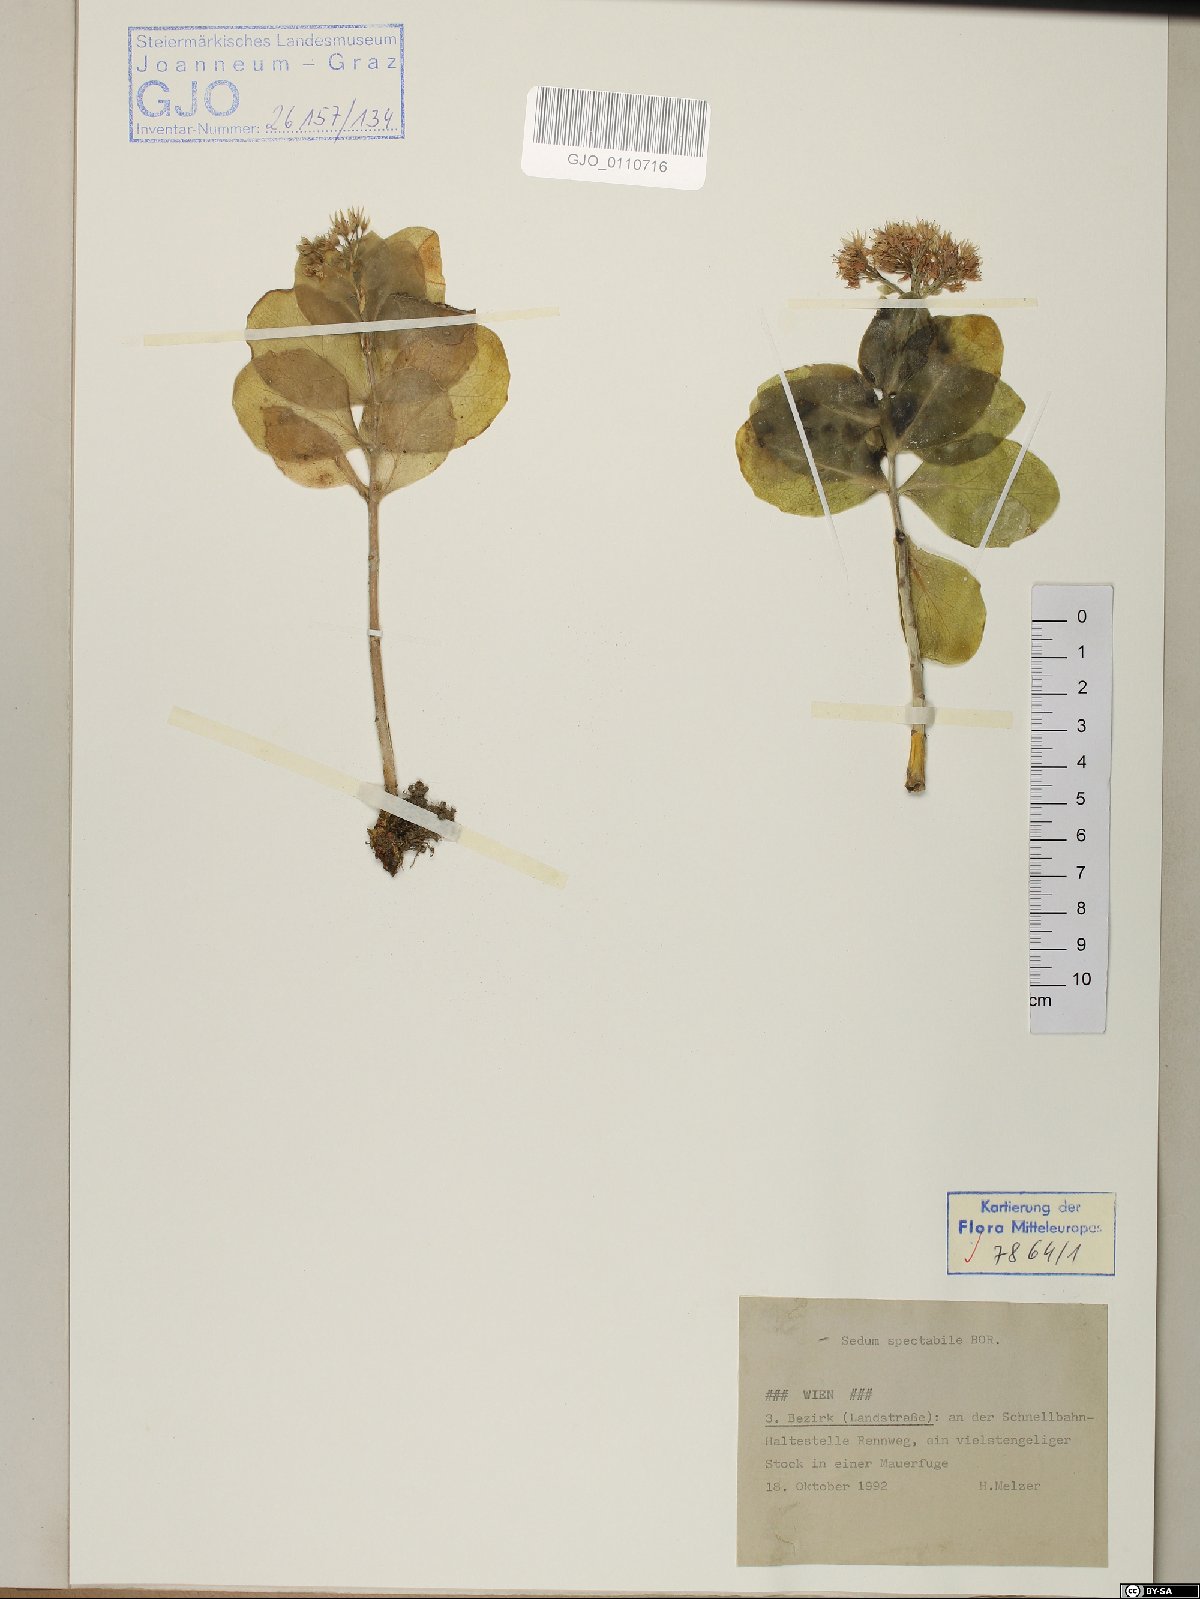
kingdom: Plantae
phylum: Tracheophyta
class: Magnoliopsida
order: Saxifragales
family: Crassulaceae
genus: Hylotelephium
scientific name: Hylotelephium spectabile
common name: Showy stonecrop
